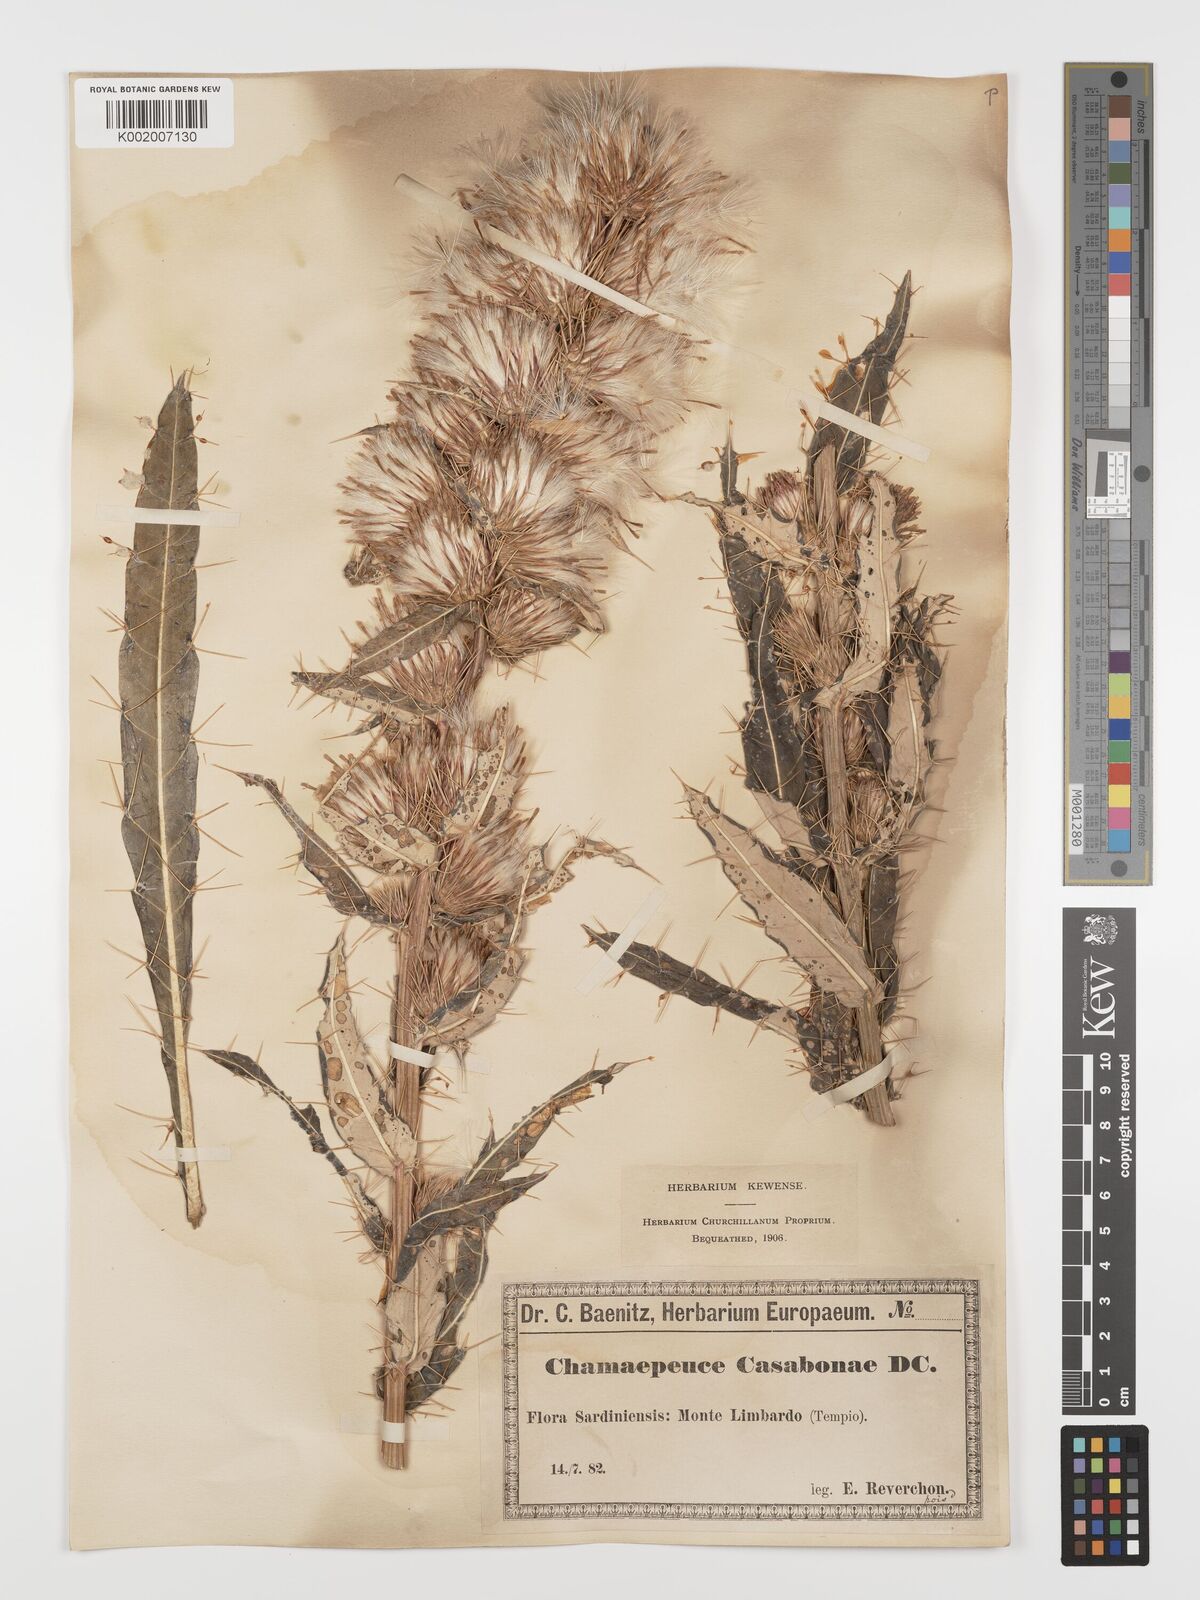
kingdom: Plantae
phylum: Tracheophyta
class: Magnoliopsida
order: Asterales
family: Asteraceae
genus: Ptilostemon
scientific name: Ptilostemon casabonae
